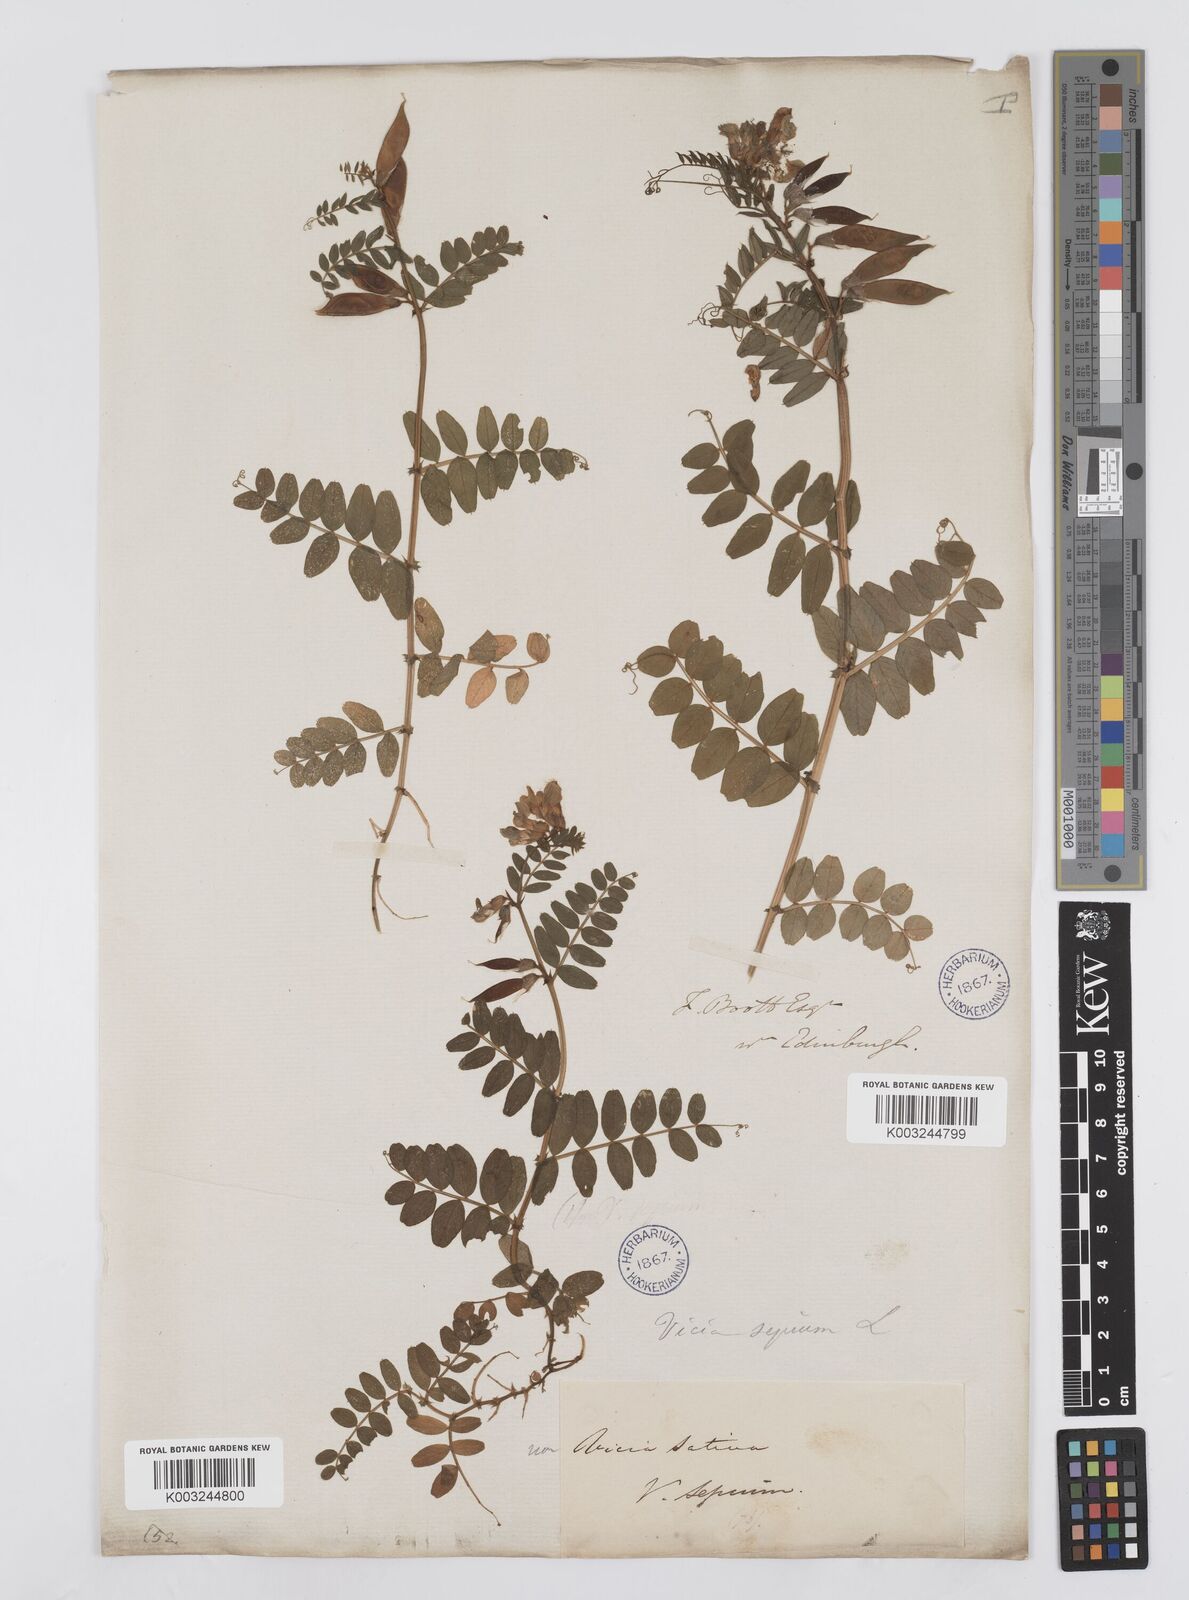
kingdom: Plantae
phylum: Tracheophyta
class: Magnoliopsida
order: Fabales
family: Fabaceae
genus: Vicia
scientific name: Vicia sepium
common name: Bush vetch
